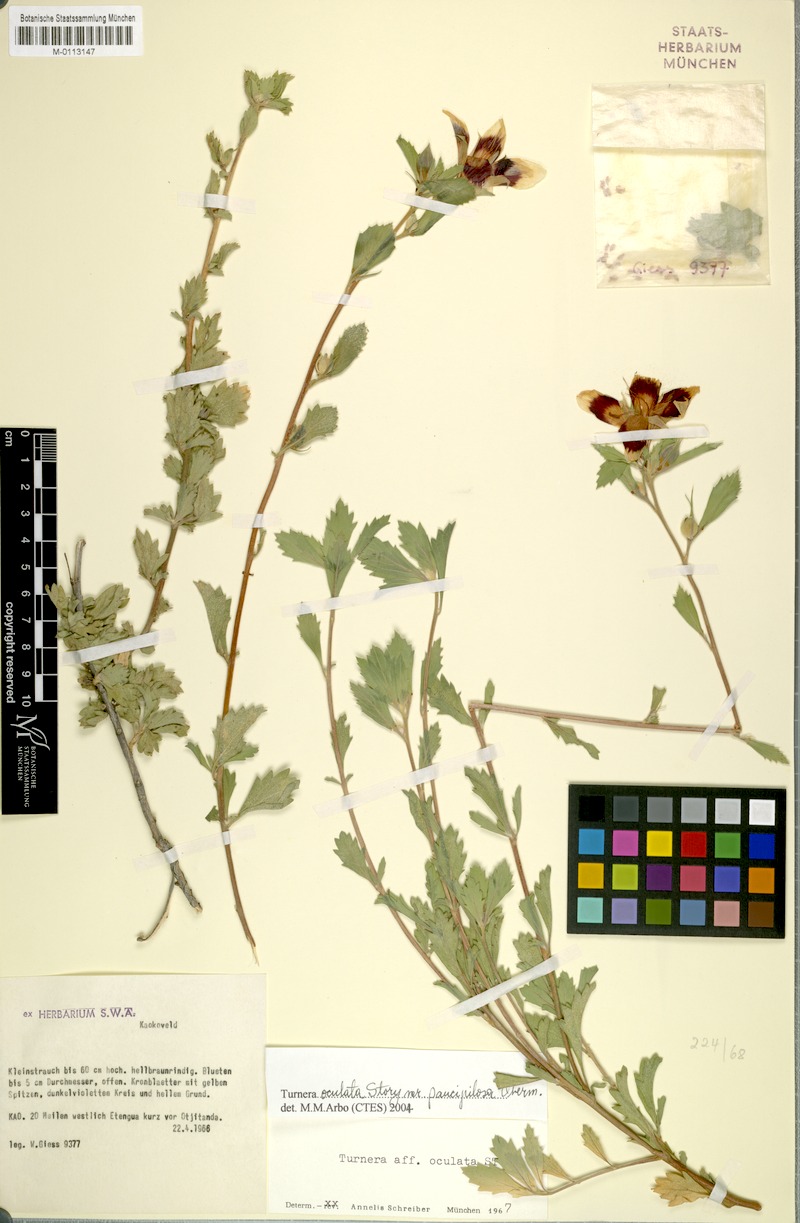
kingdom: Plantae
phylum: Tracheophyta
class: Magnoliopsida
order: Malpighiales
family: Turneraceae
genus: Turnera
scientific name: Turnera oculta
